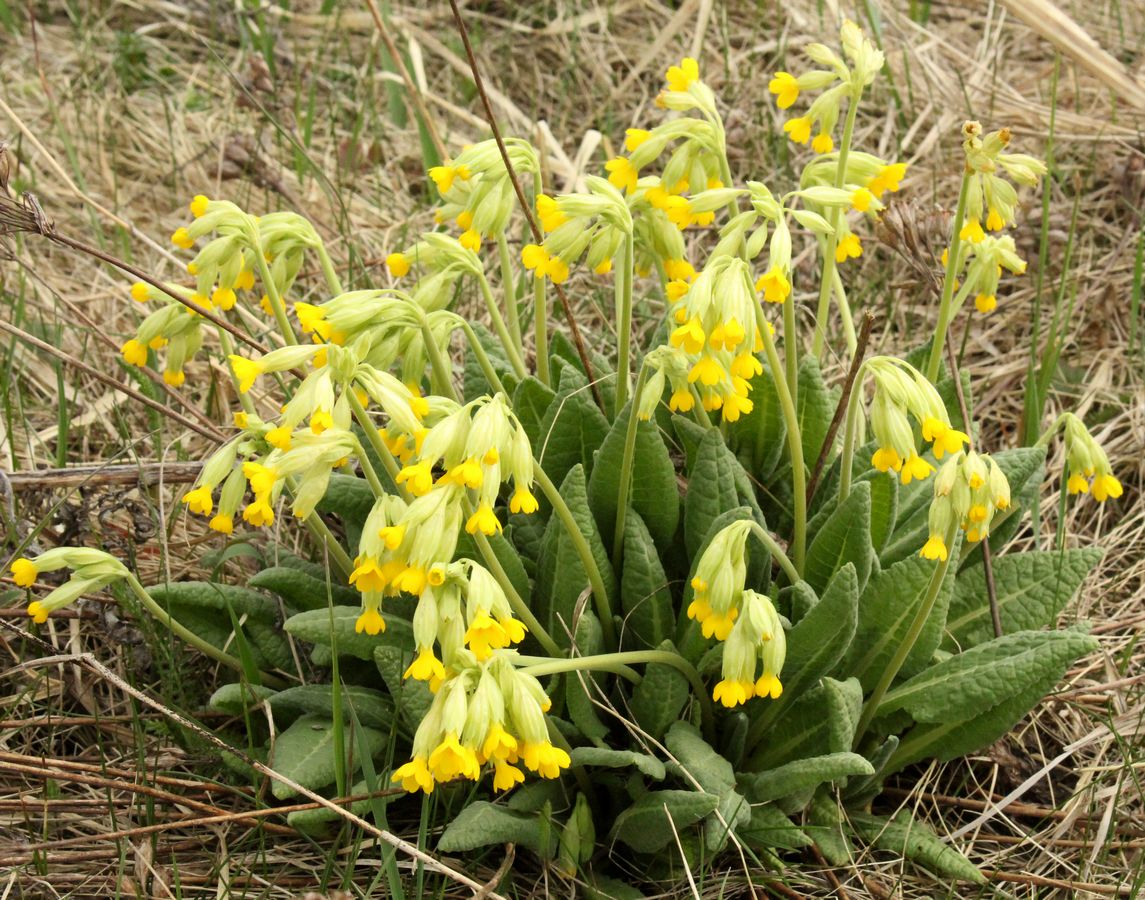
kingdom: Plantae
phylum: Tracheophyta
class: Magnoliopsida
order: Ericales
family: Primulaceae
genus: Primula
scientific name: Primula veris
